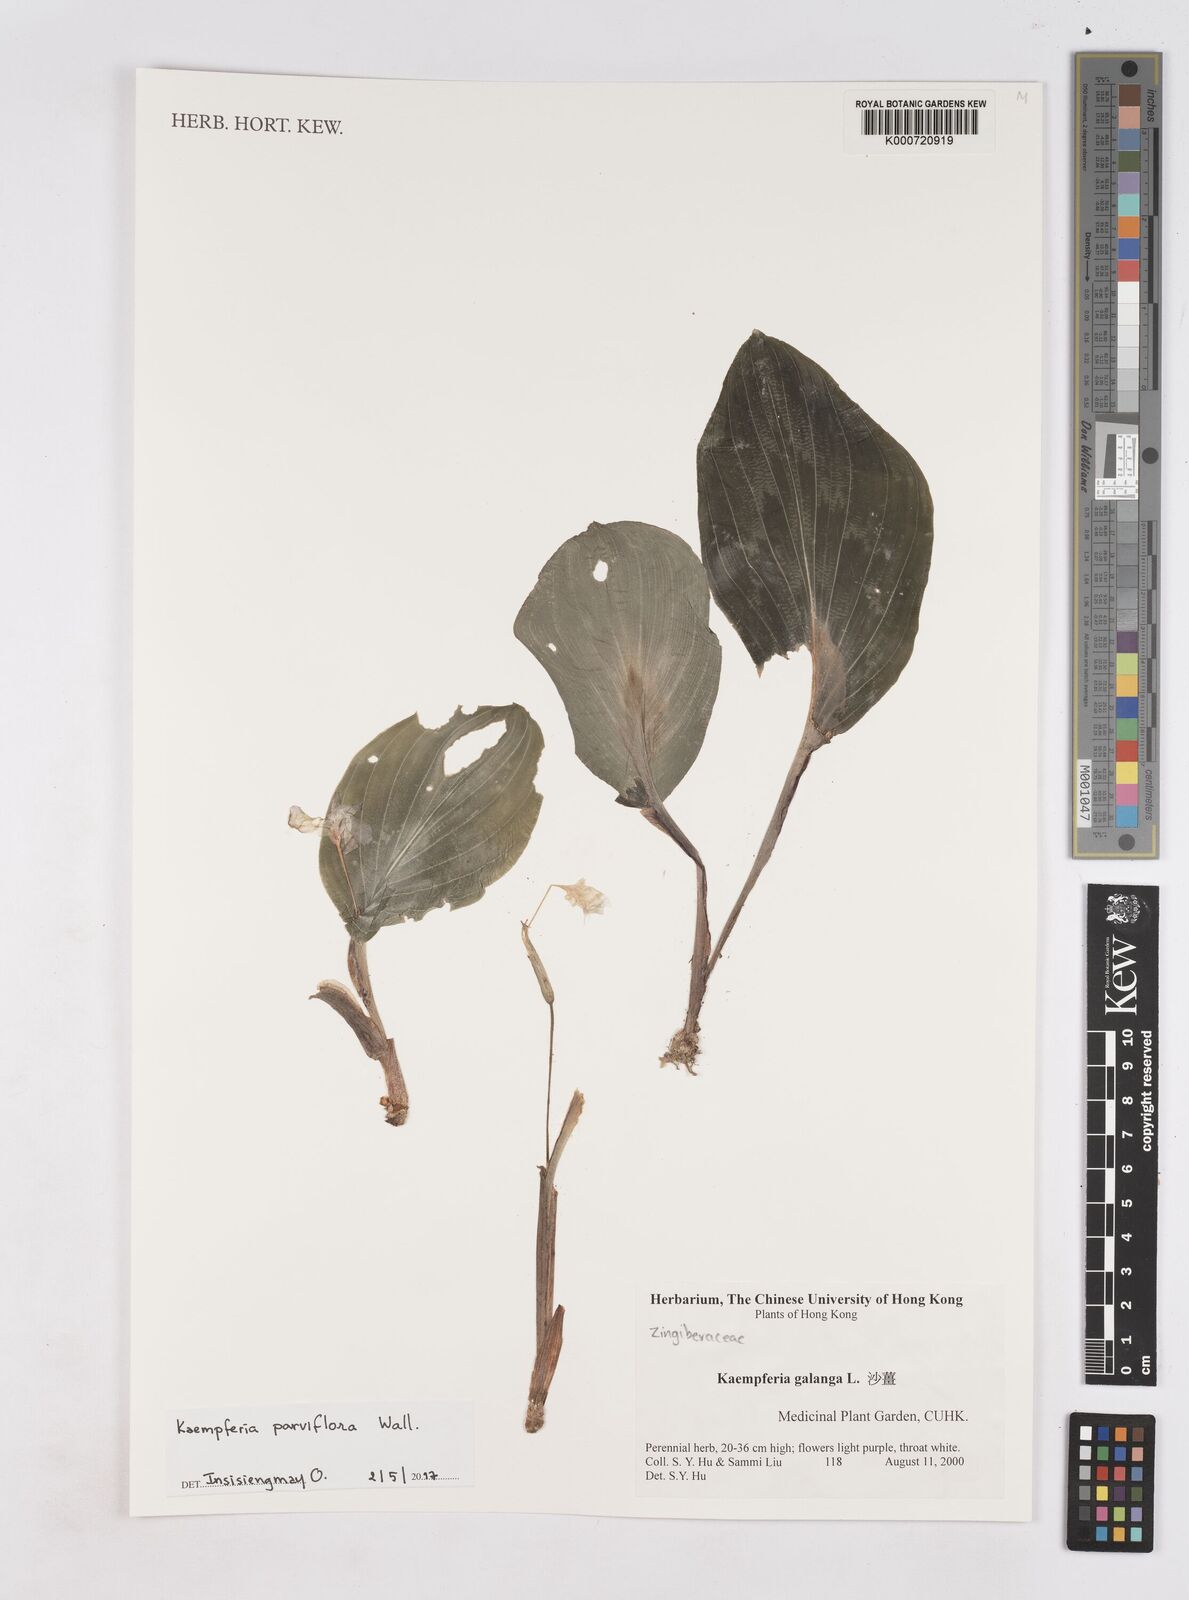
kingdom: Plantae
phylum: Tracheophyta
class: Liliopsida
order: Zingiberales
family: Zingiberaceae
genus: Kaempferia
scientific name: Kaempferia parviflora
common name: Black galingale
